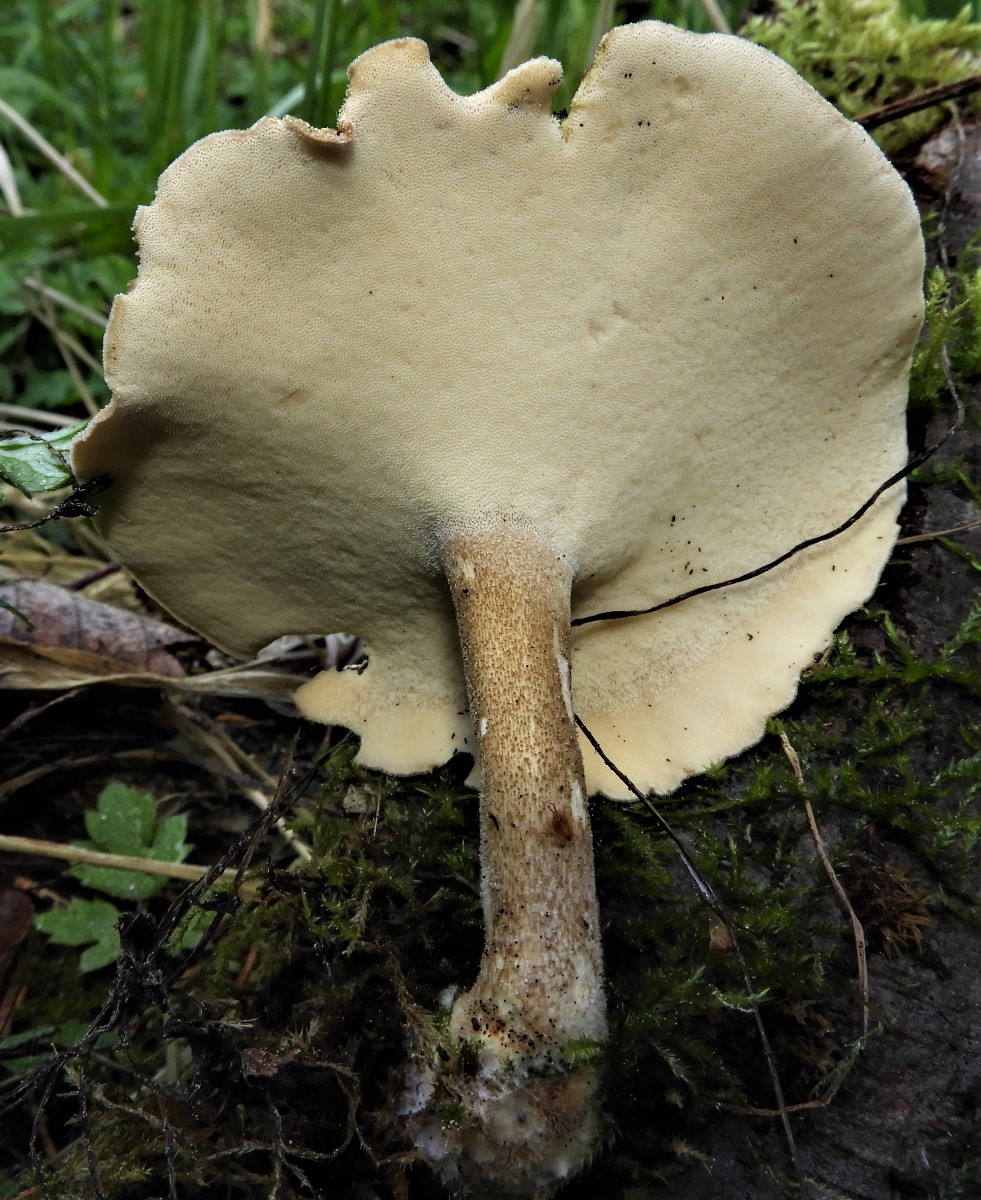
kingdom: Fungi
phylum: Basidiomycota
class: Agaricomycetes
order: Polyporales
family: Polyporaceae
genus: Lentinus
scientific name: Lentinus substrictus
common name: forårs-stilkporesvamp
